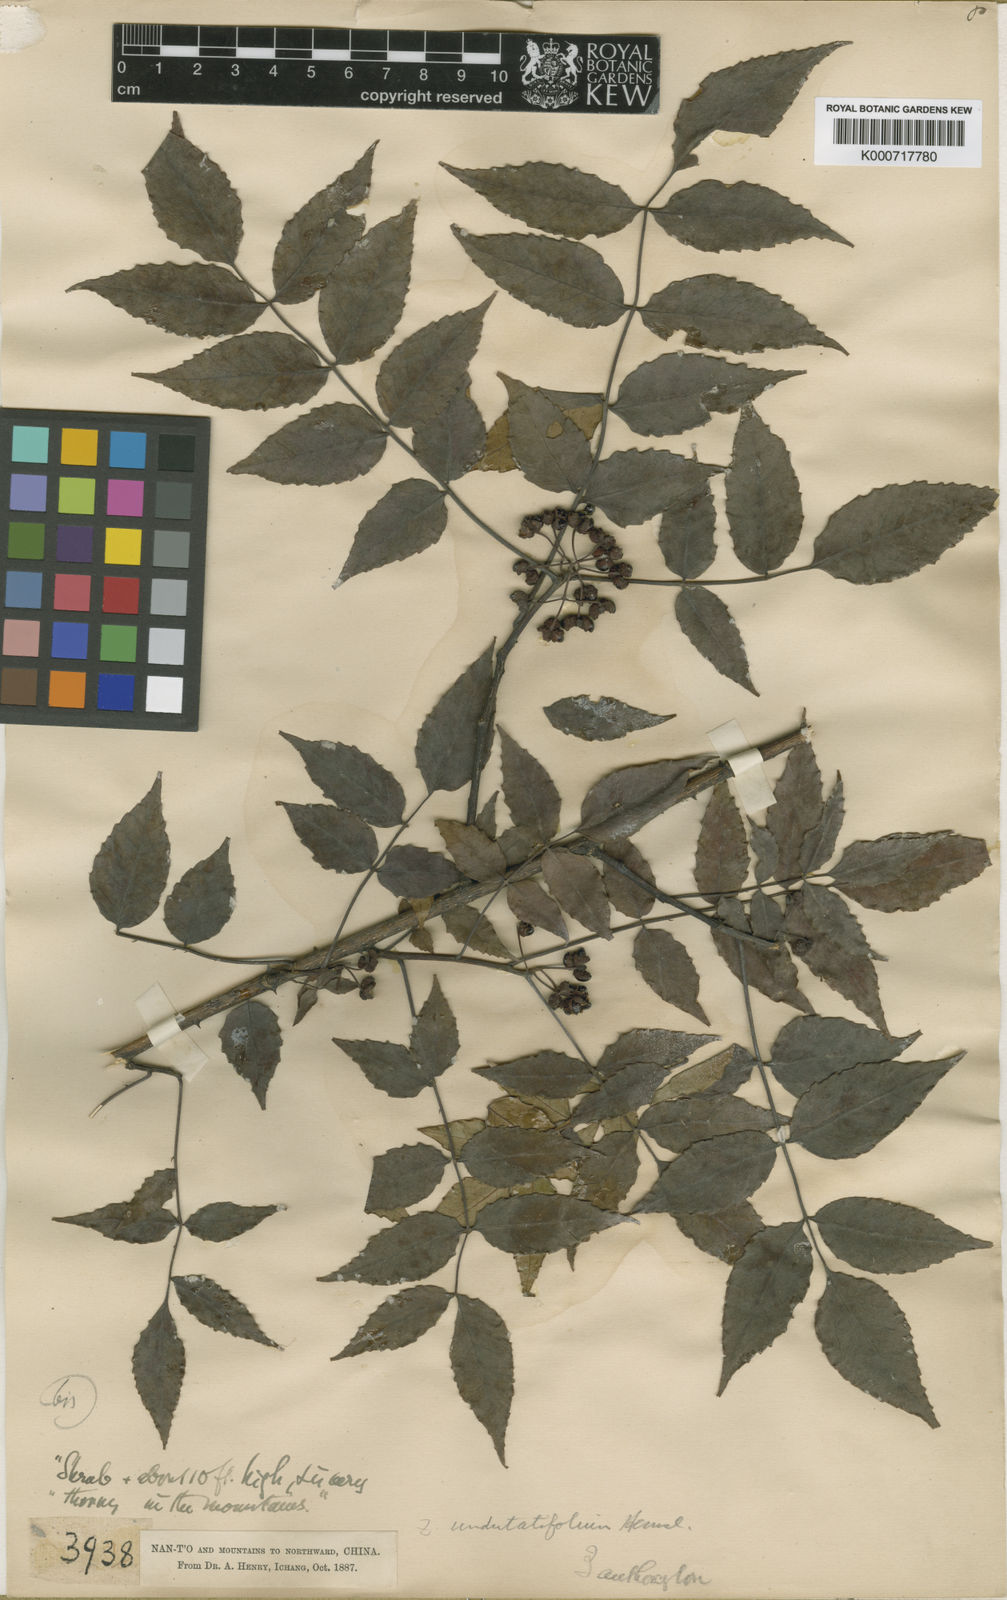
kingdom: Plantae
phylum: Tracheophyta
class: Magnoliopsida
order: Sapindales
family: Rutaceae
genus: Zanthoxylum
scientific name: Zanthoxylum undulatifolium
